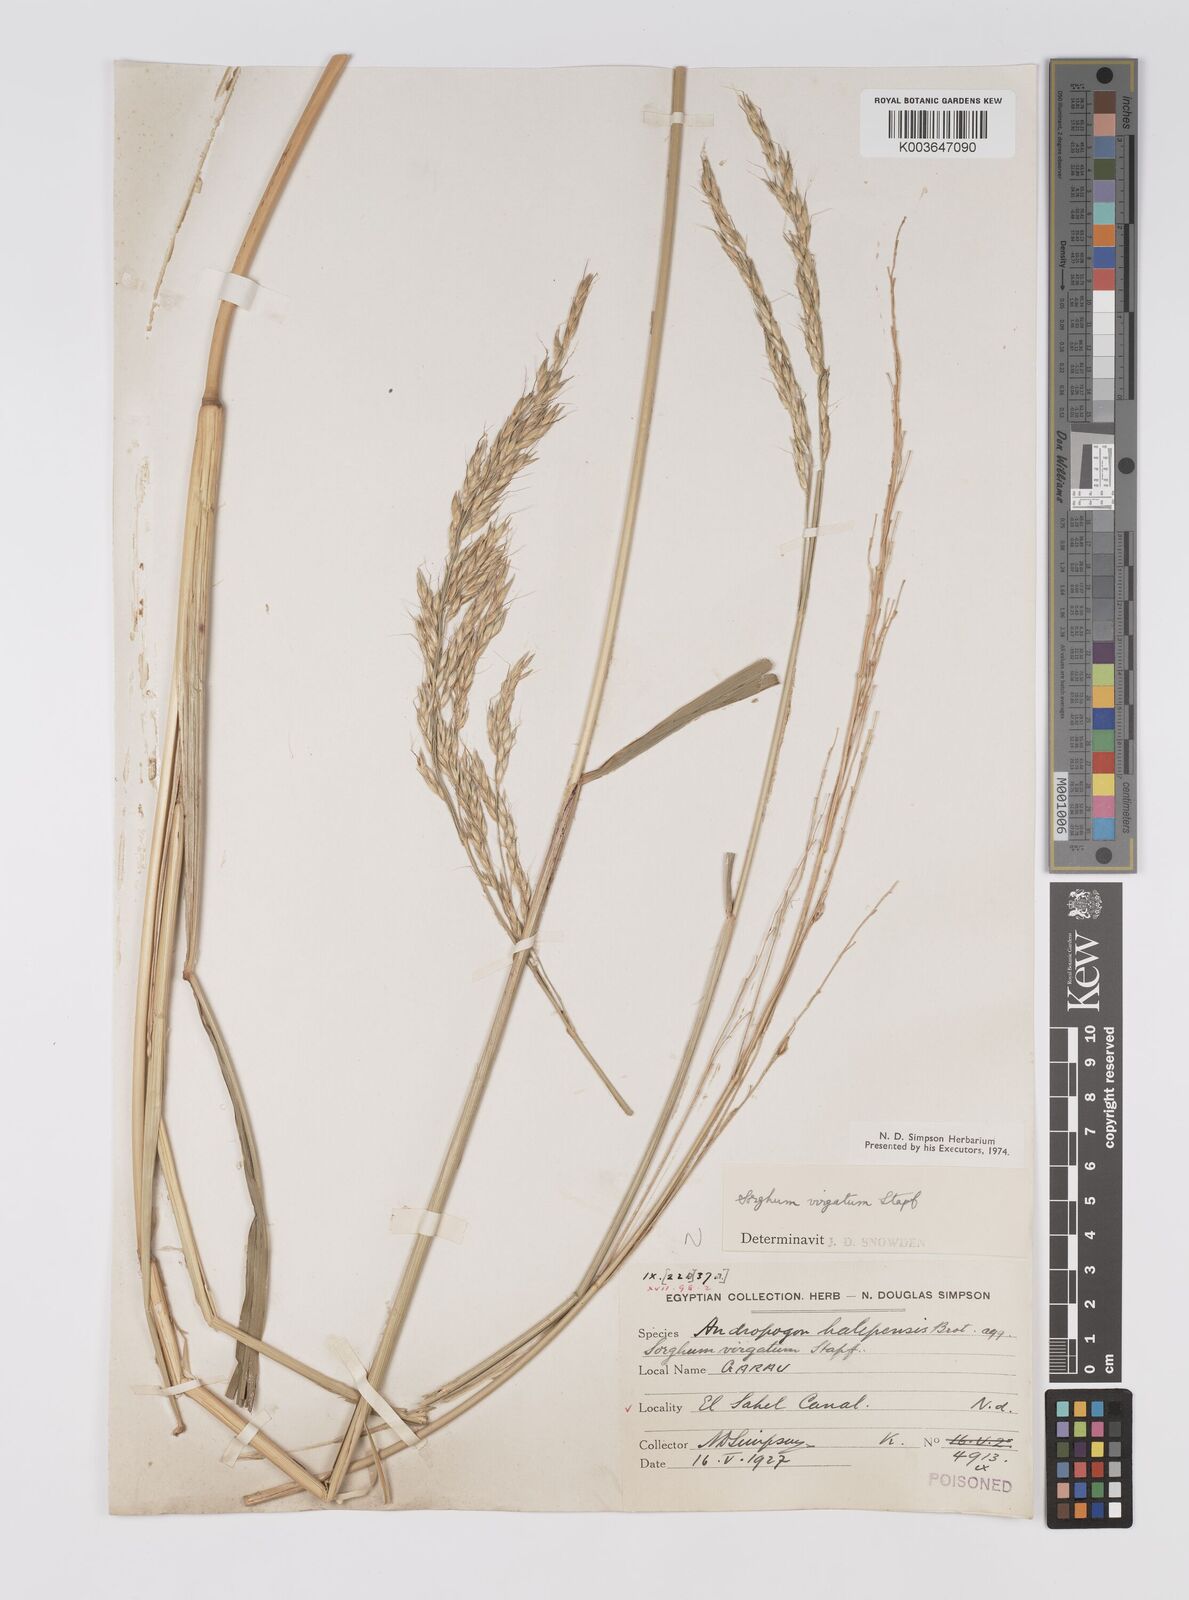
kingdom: Plantae
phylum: Tracheophyta
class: Liliopsida
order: Poales
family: Poaceae
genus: Sorghum
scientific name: Sorghum virgatum
